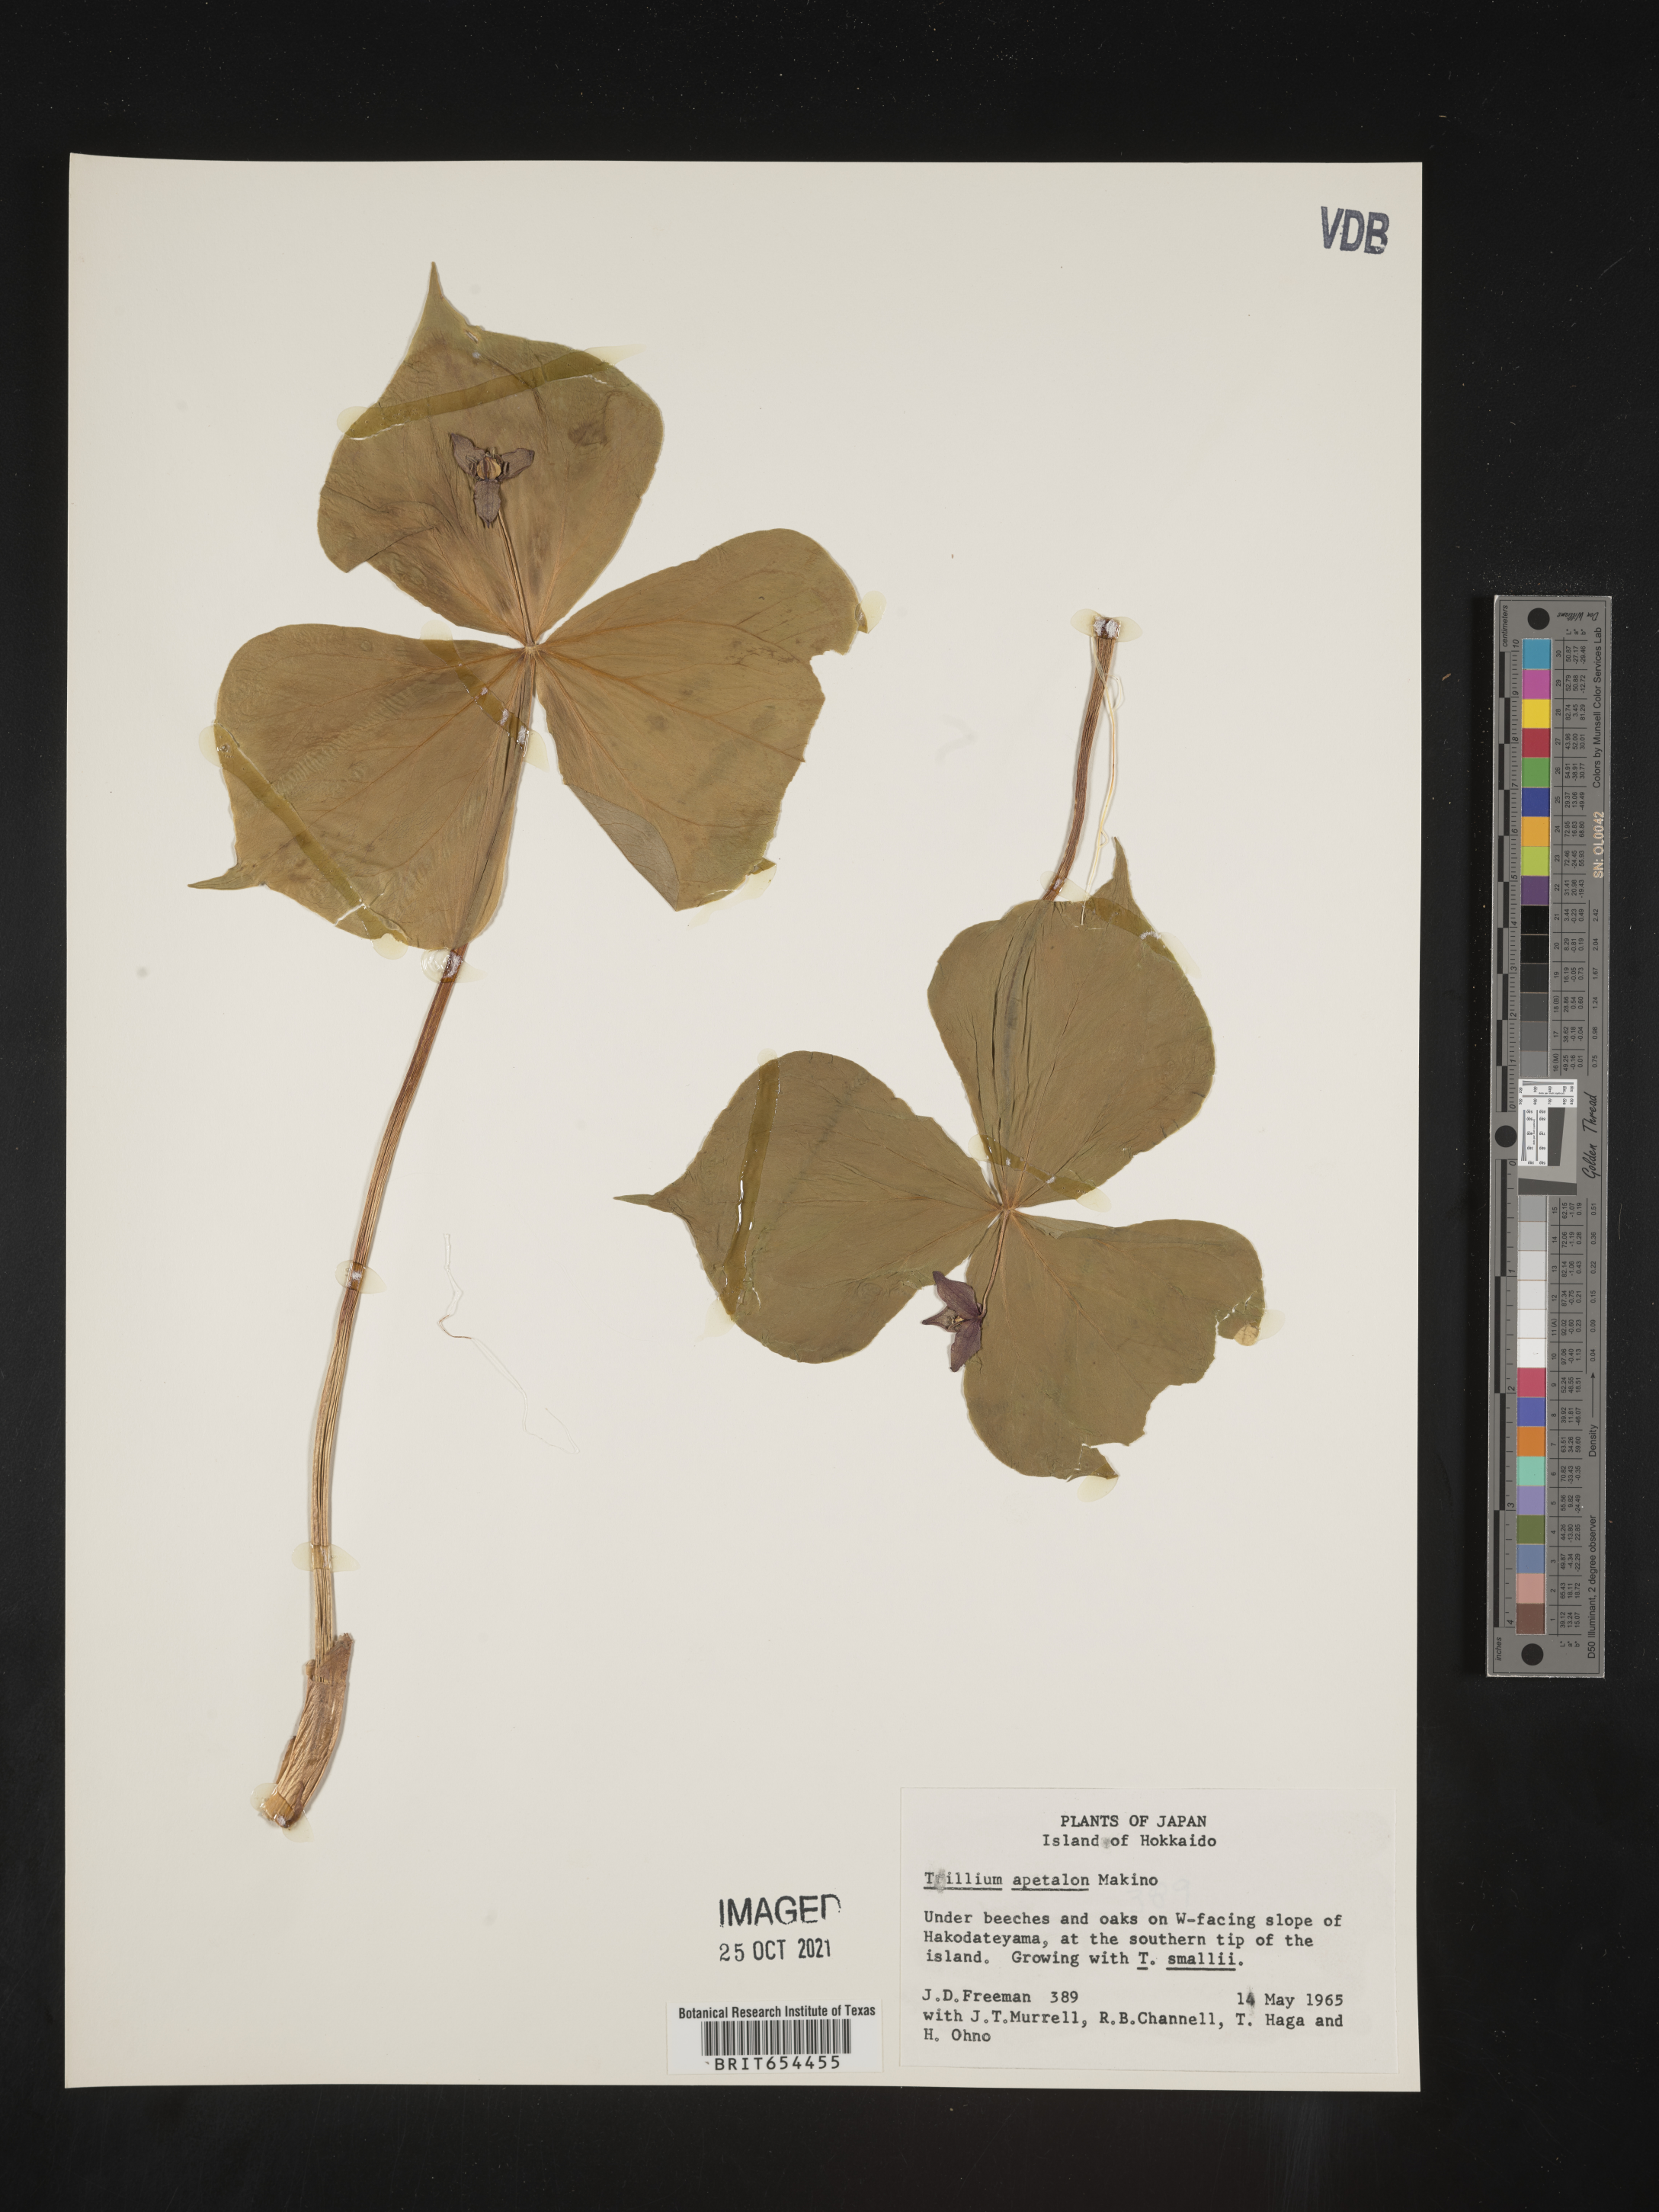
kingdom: Plantae
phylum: Tracheophyta
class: Liliopsida
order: Liliales
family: Melanthiaceae
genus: Trillium
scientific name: Trillium
